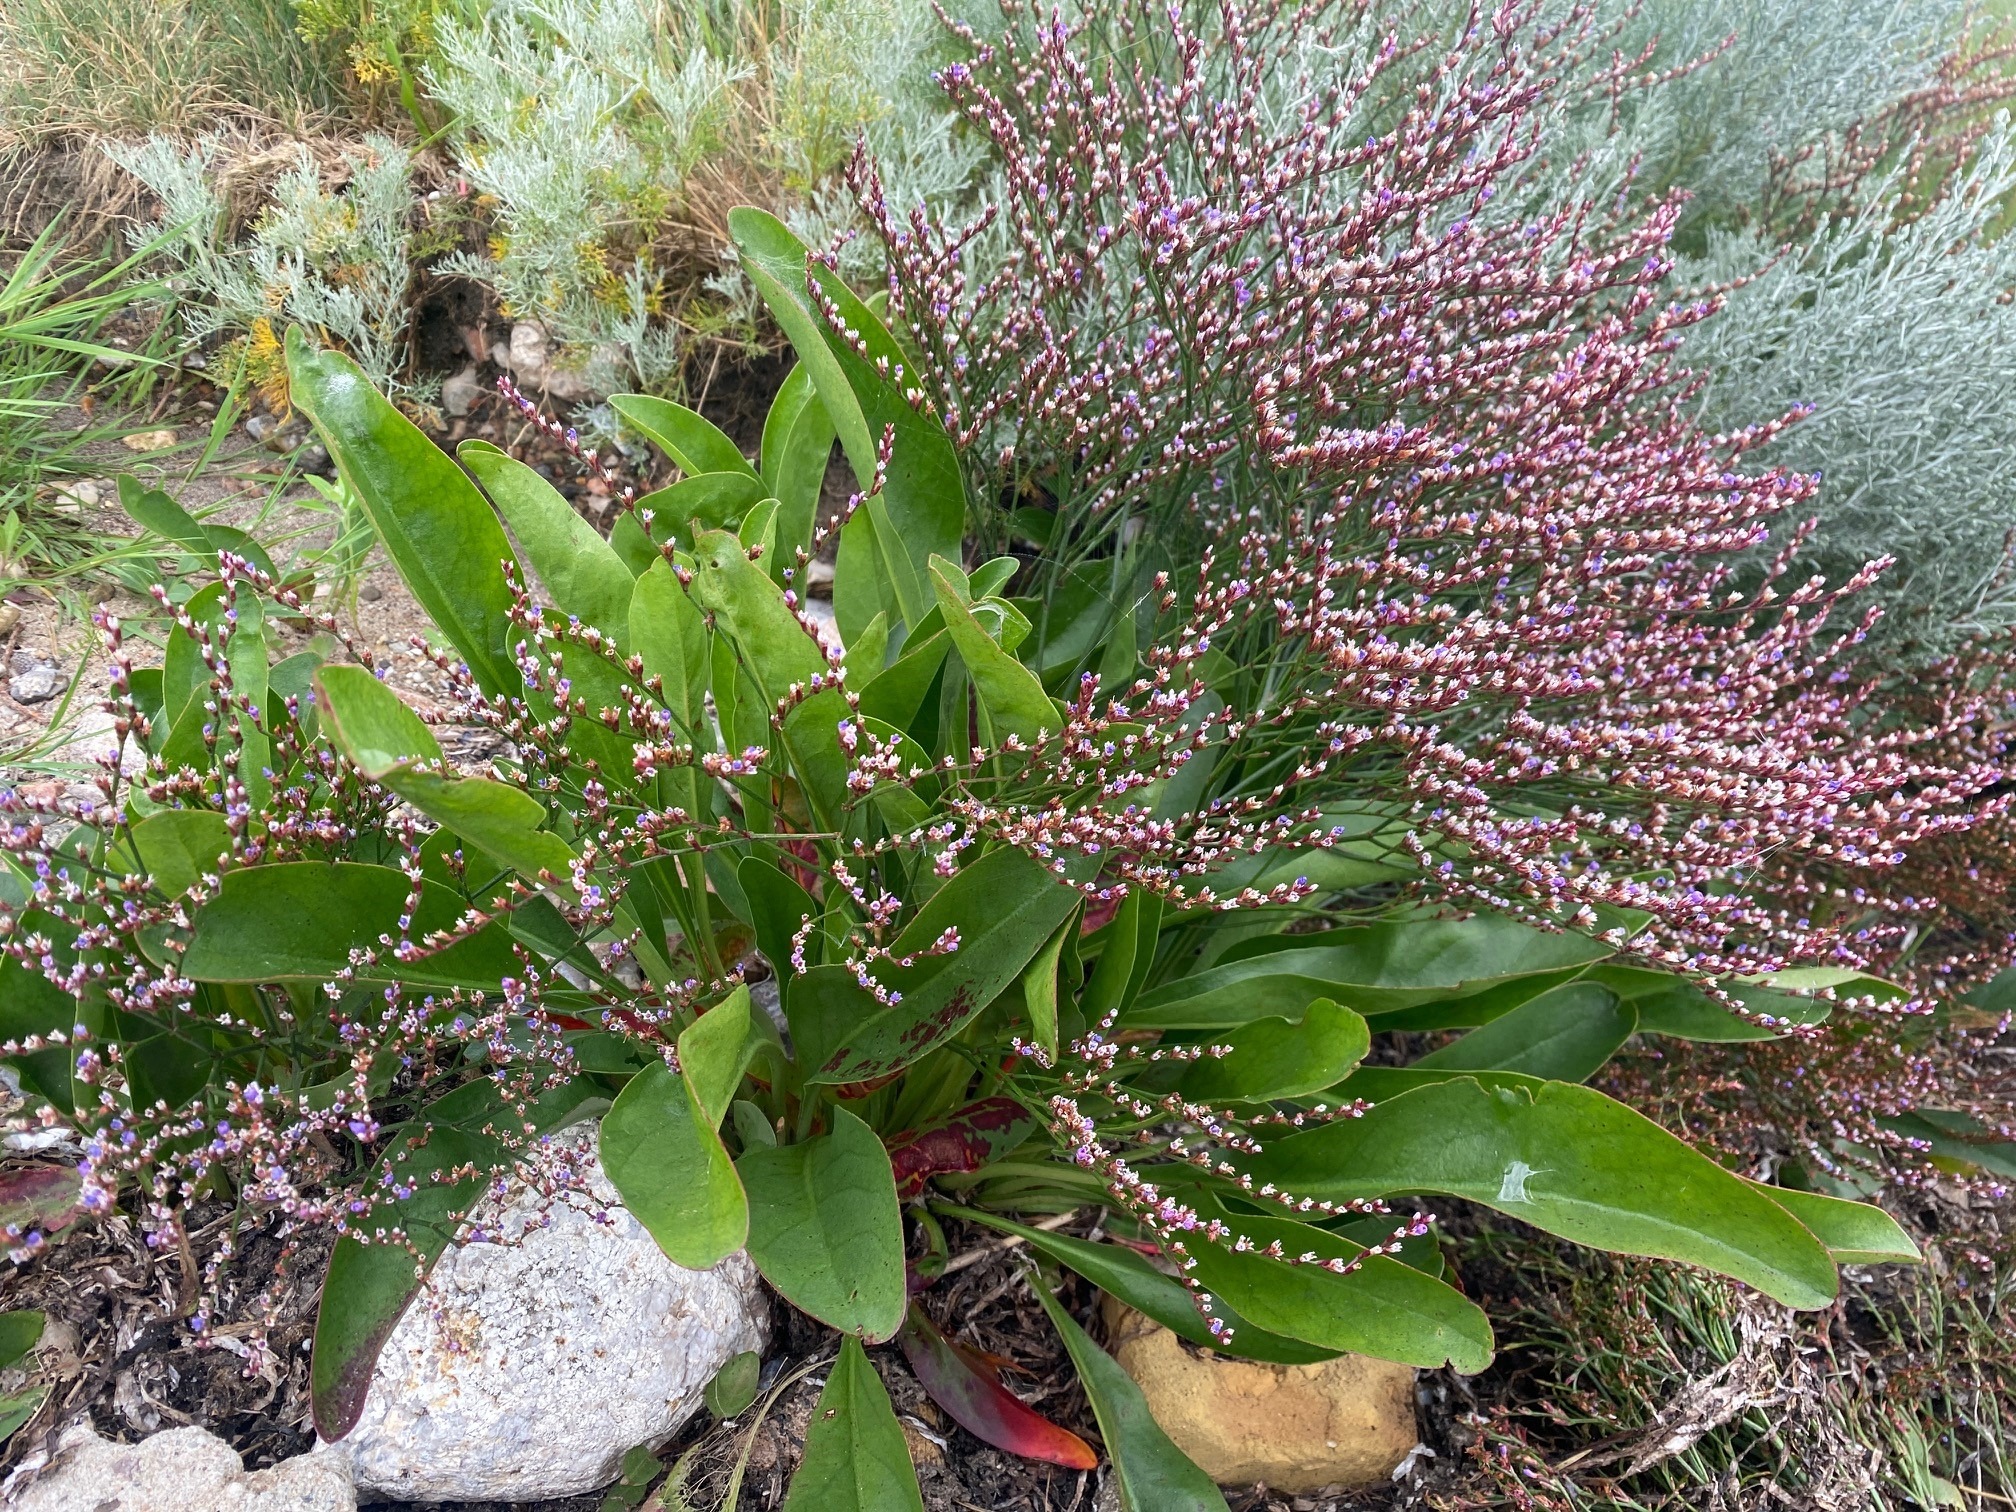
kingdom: Plantae
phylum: Tracheophyta
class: Magnoliopsida
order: Caryophyllales
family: Plumbaginaceae
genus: Limonium
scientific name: Limonium humile
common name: Lav hindebæger
